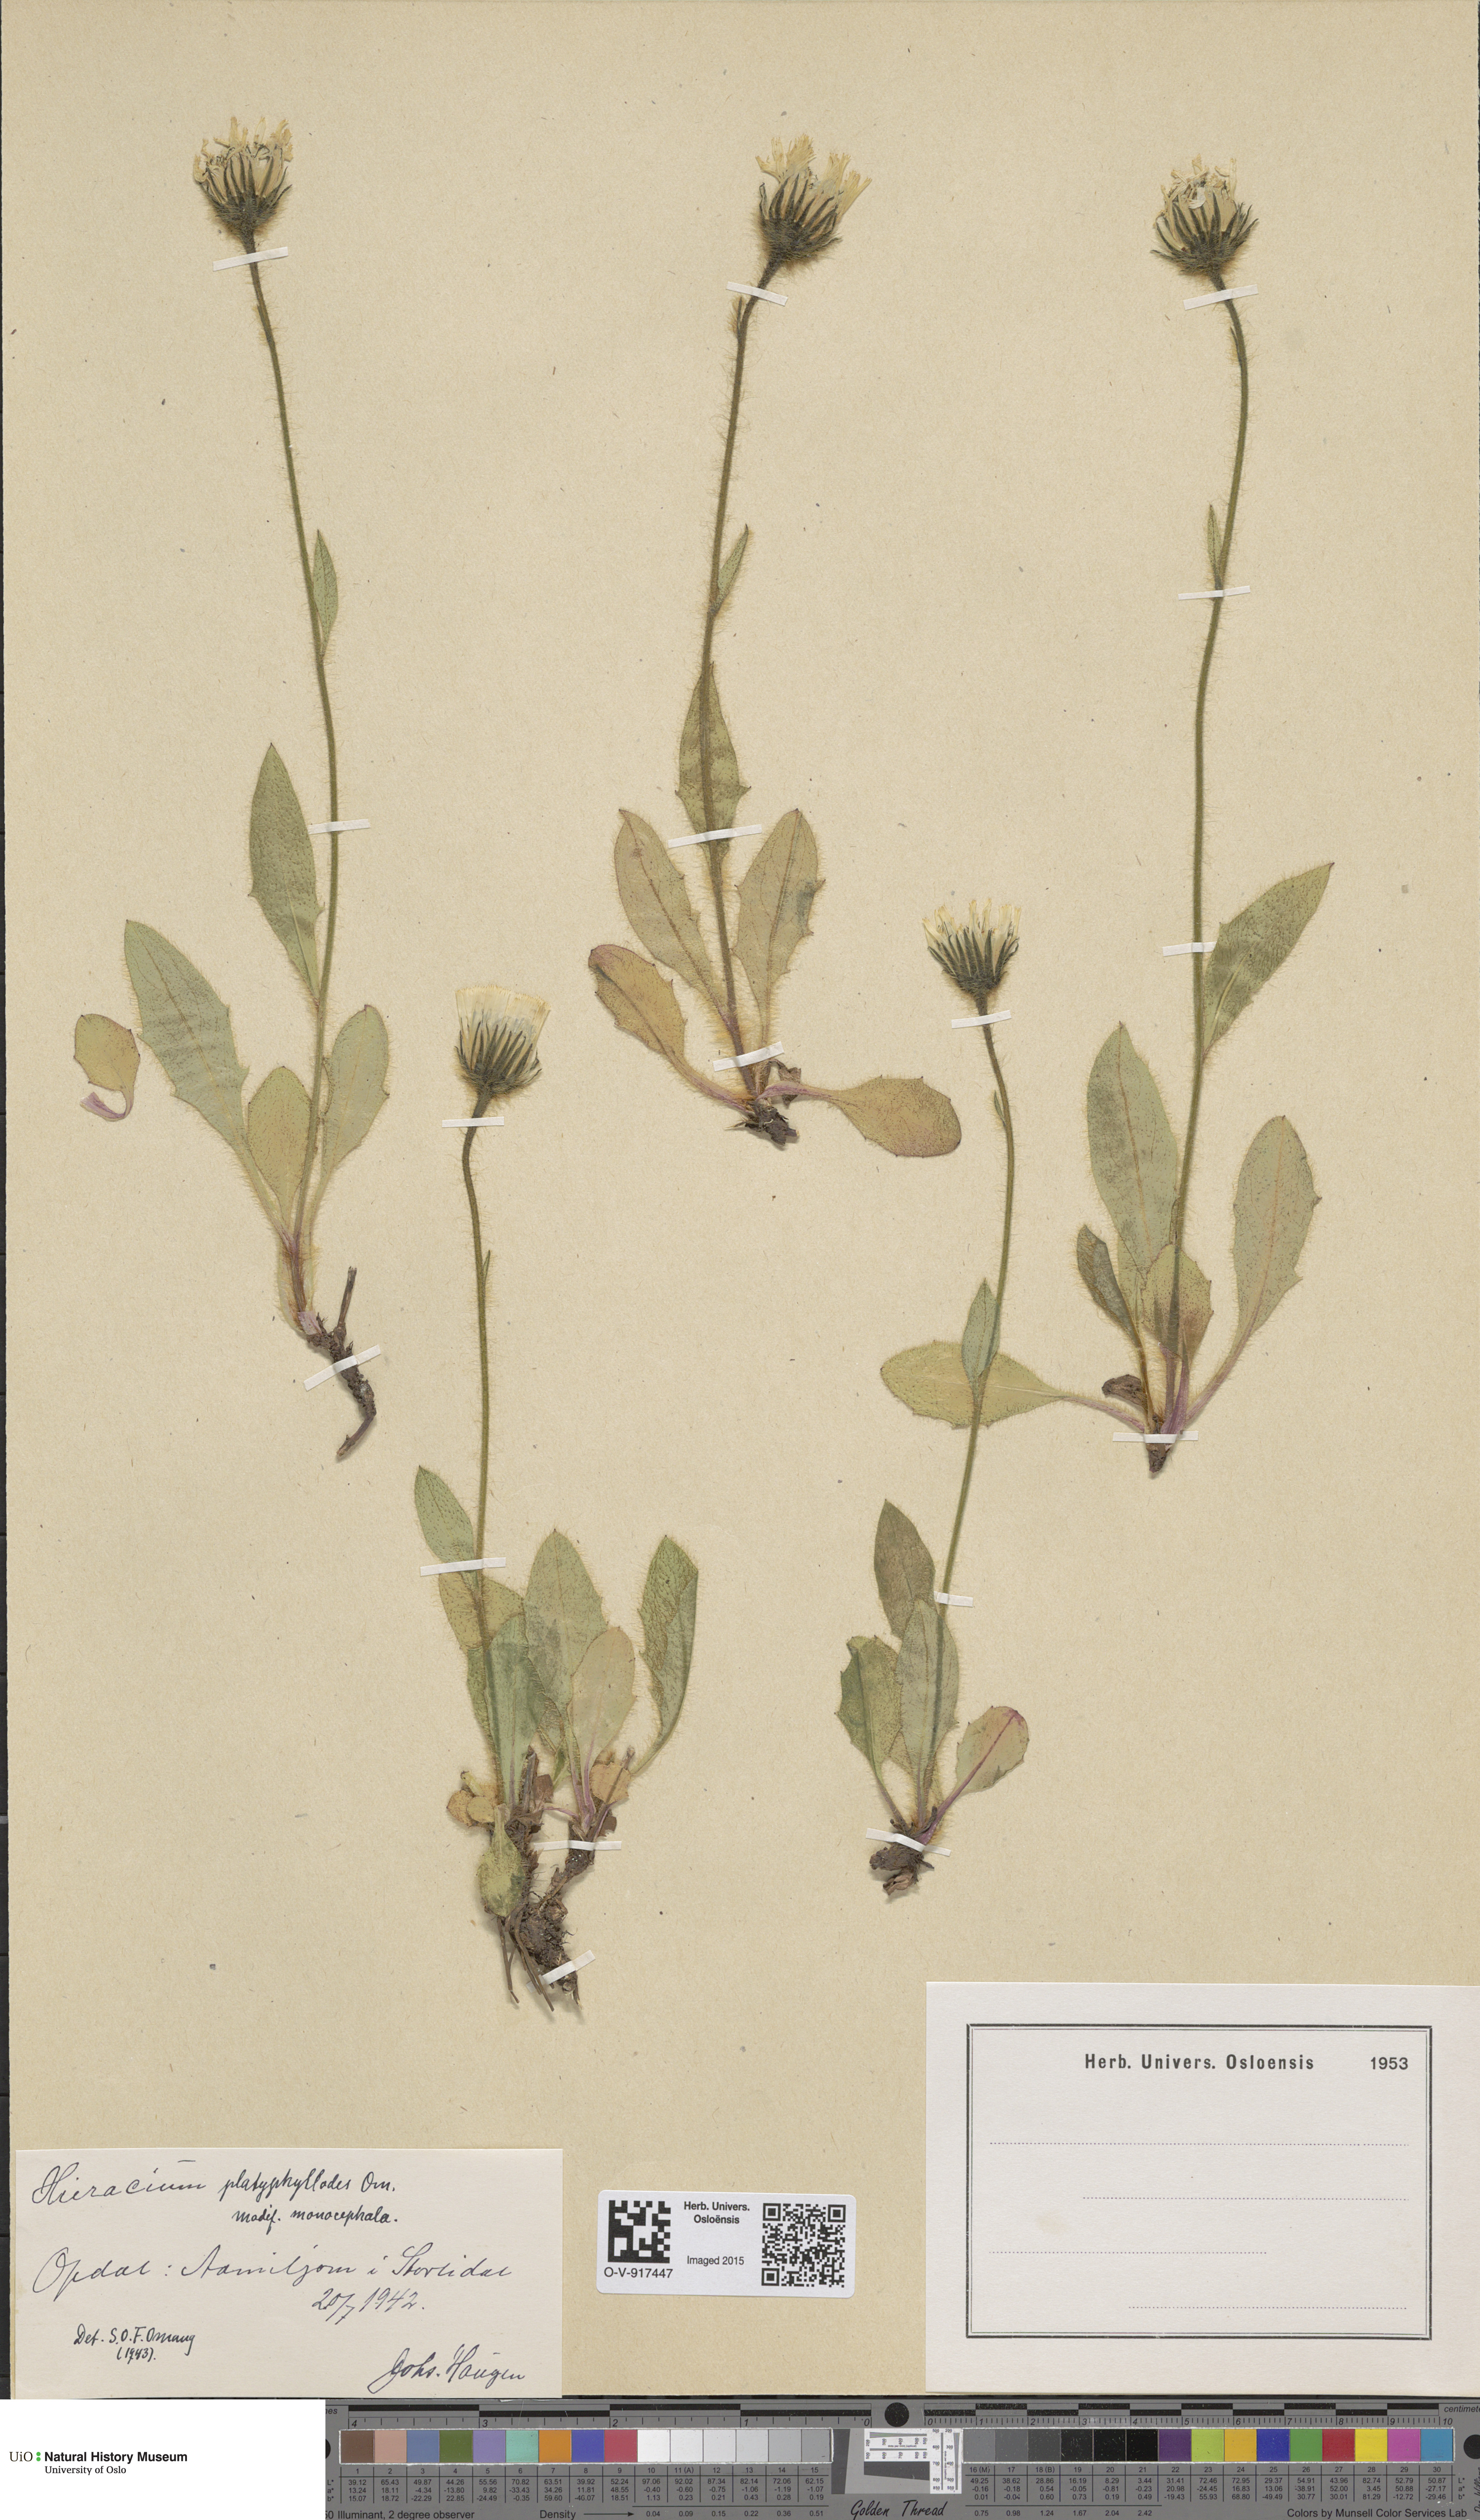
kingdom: Plantae
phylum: Tracheophyta
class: Magnoliopsida
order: Asterales
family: Asteraceae
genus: Hieracium
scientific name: Hieracium
